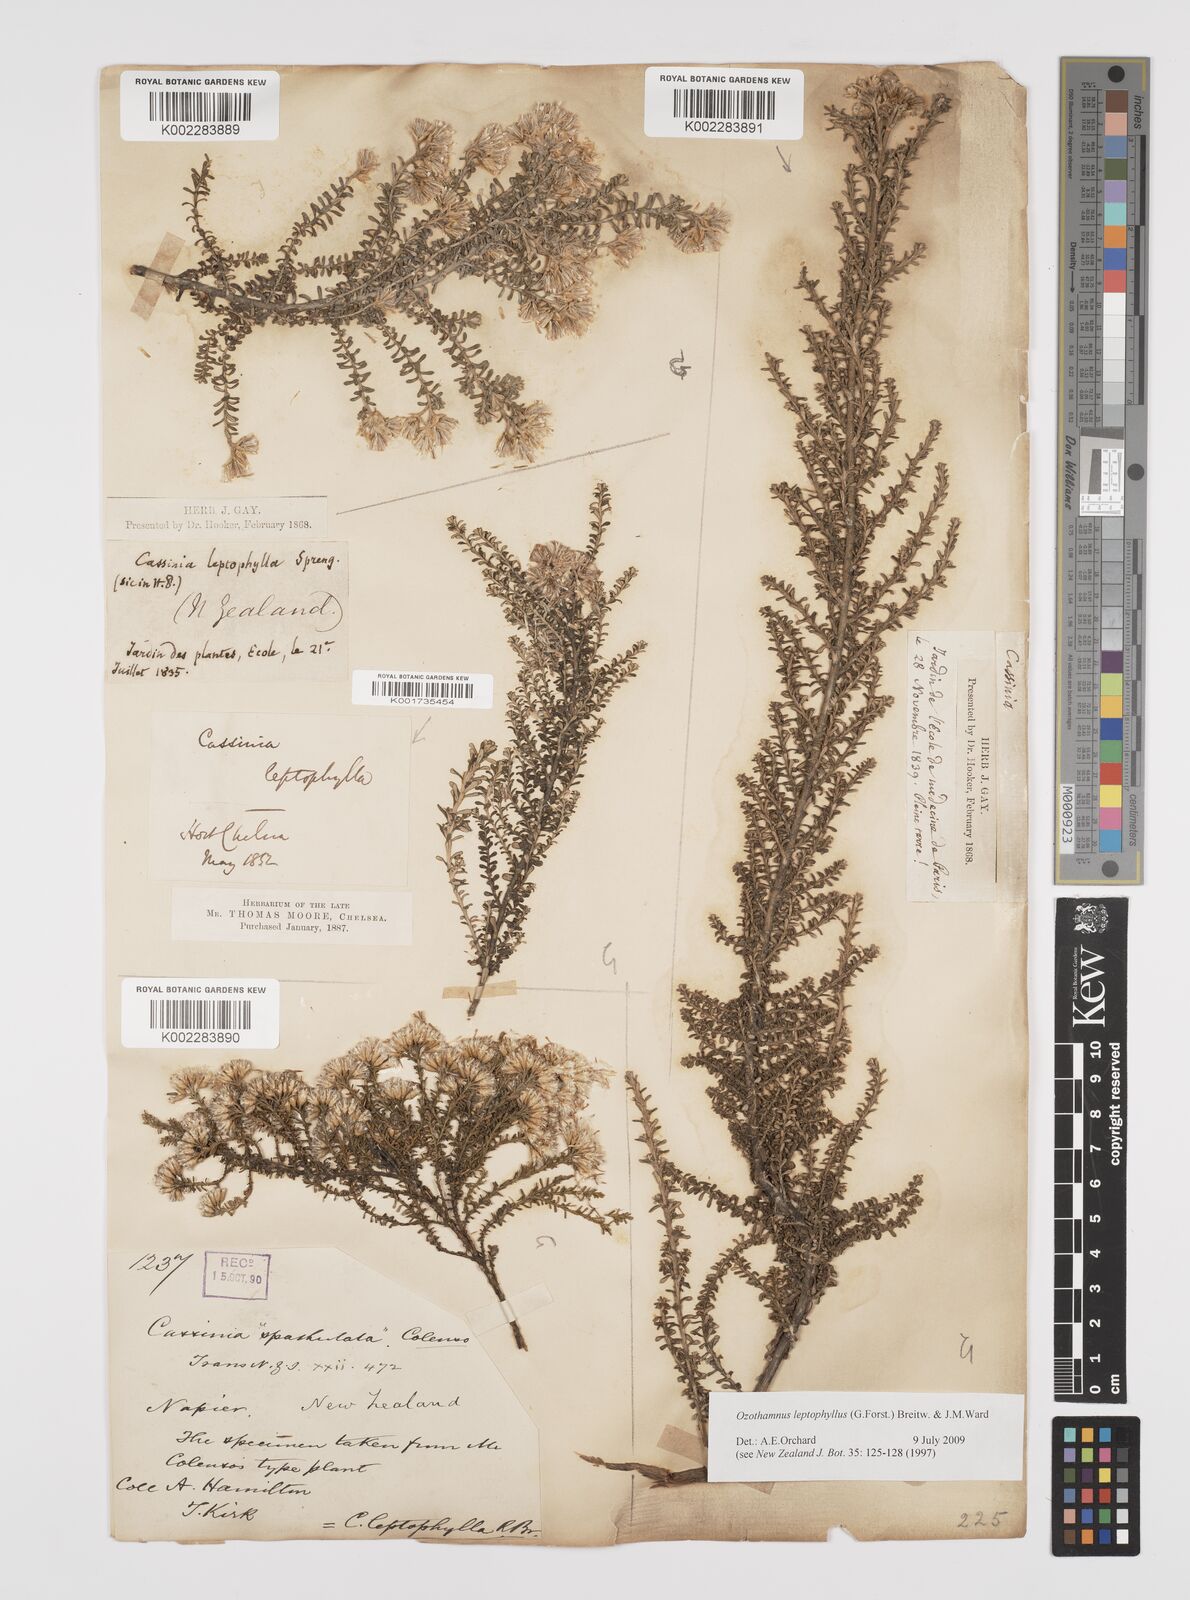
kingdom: Plantae
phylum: Tracheophyta
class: Magnoliopsida
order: Asterales
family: Asteraceae
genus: Ozothamnus
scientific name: Ozothamnus leptophyllus
